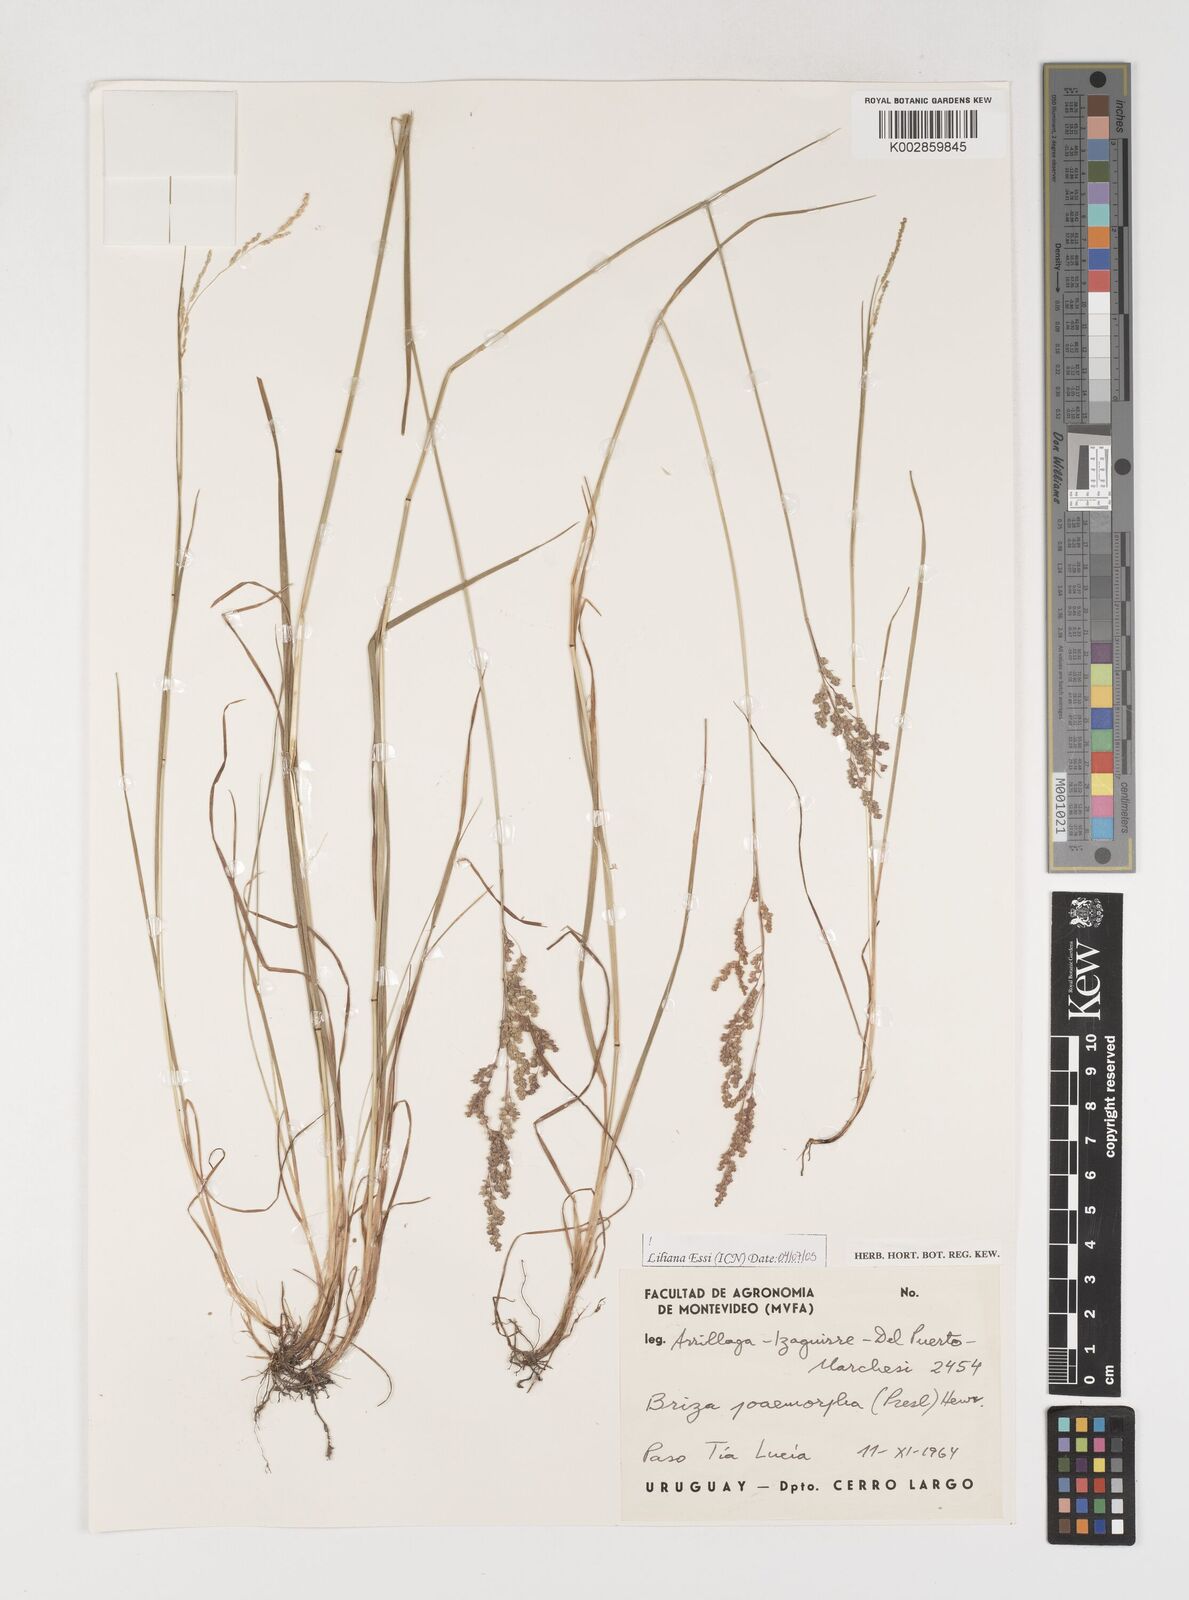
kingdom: Plantae
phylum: Tracheophyta
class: Liliopsida
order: Poales
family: Poaceae
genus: Microbriza
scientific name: Microbriza poimorpha
